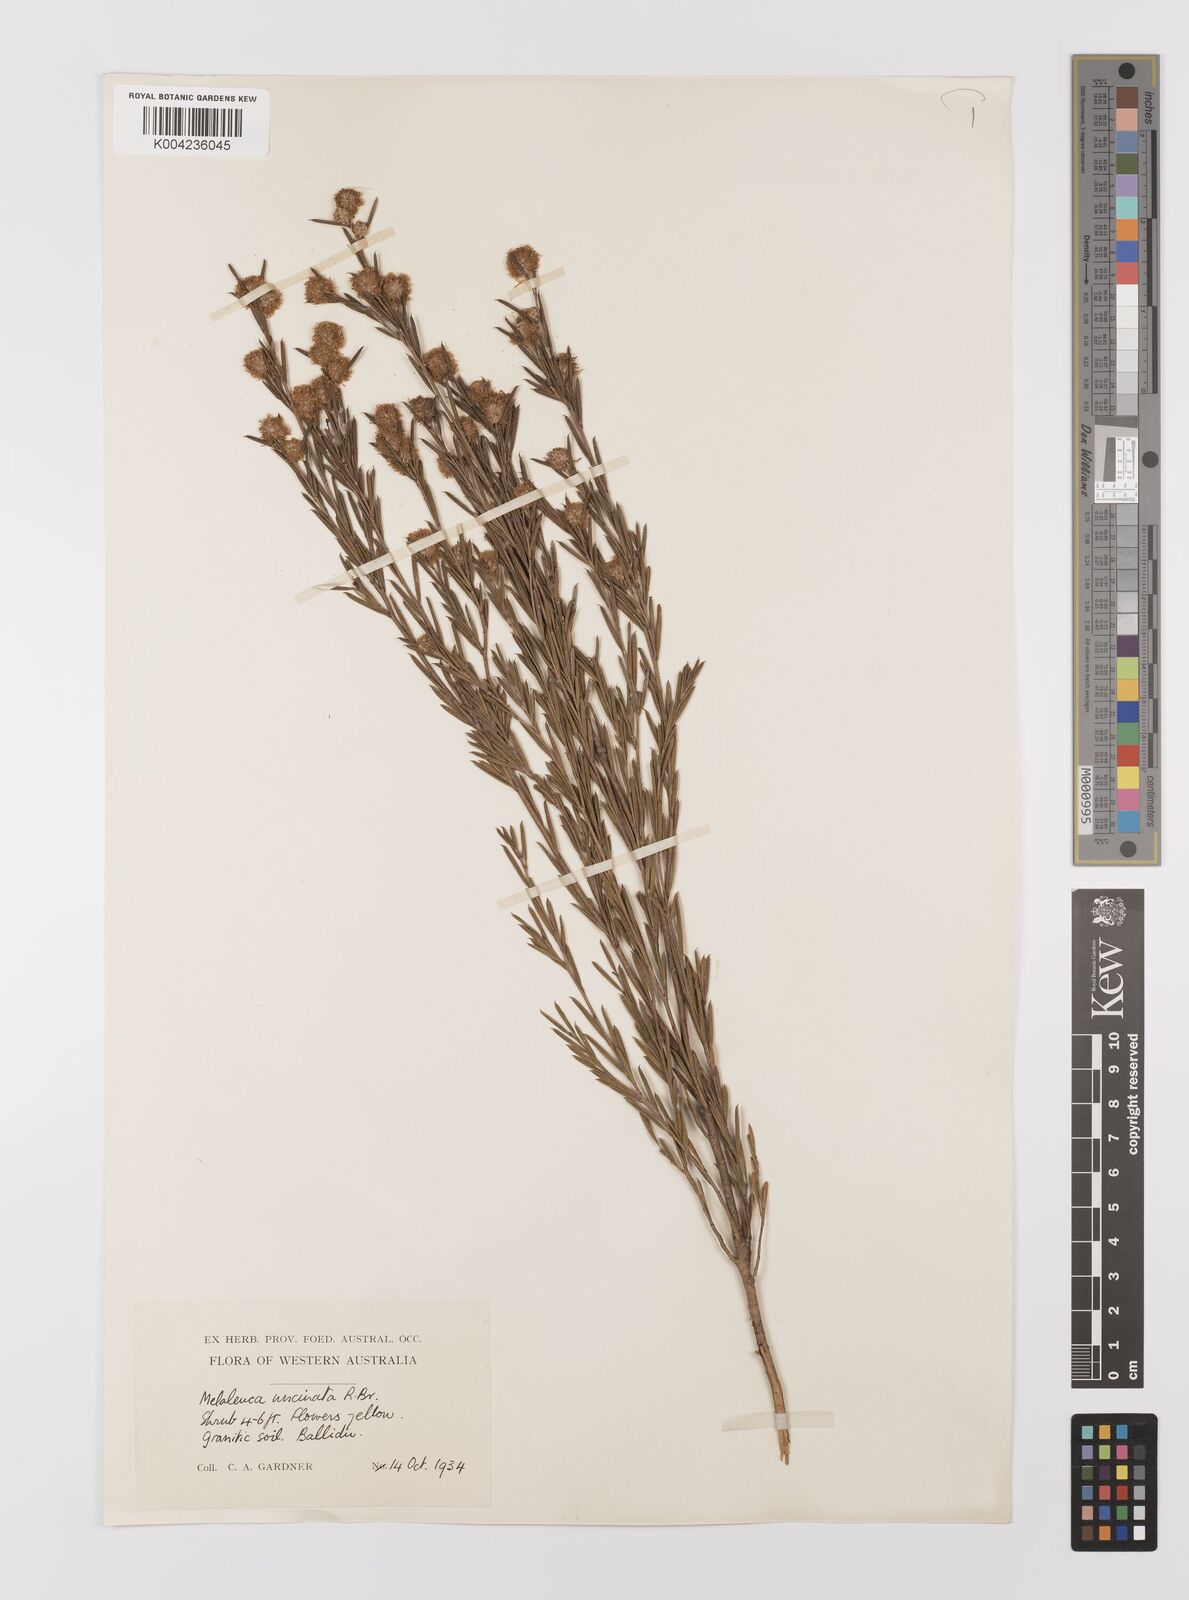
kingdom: Plantae
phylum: Tracheophyta
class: Magnoliopsida
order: Myrtales
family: Myrtaceae
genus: Melaleuca
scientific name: Melaleuca uncinata
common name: Broom honey myrtle
